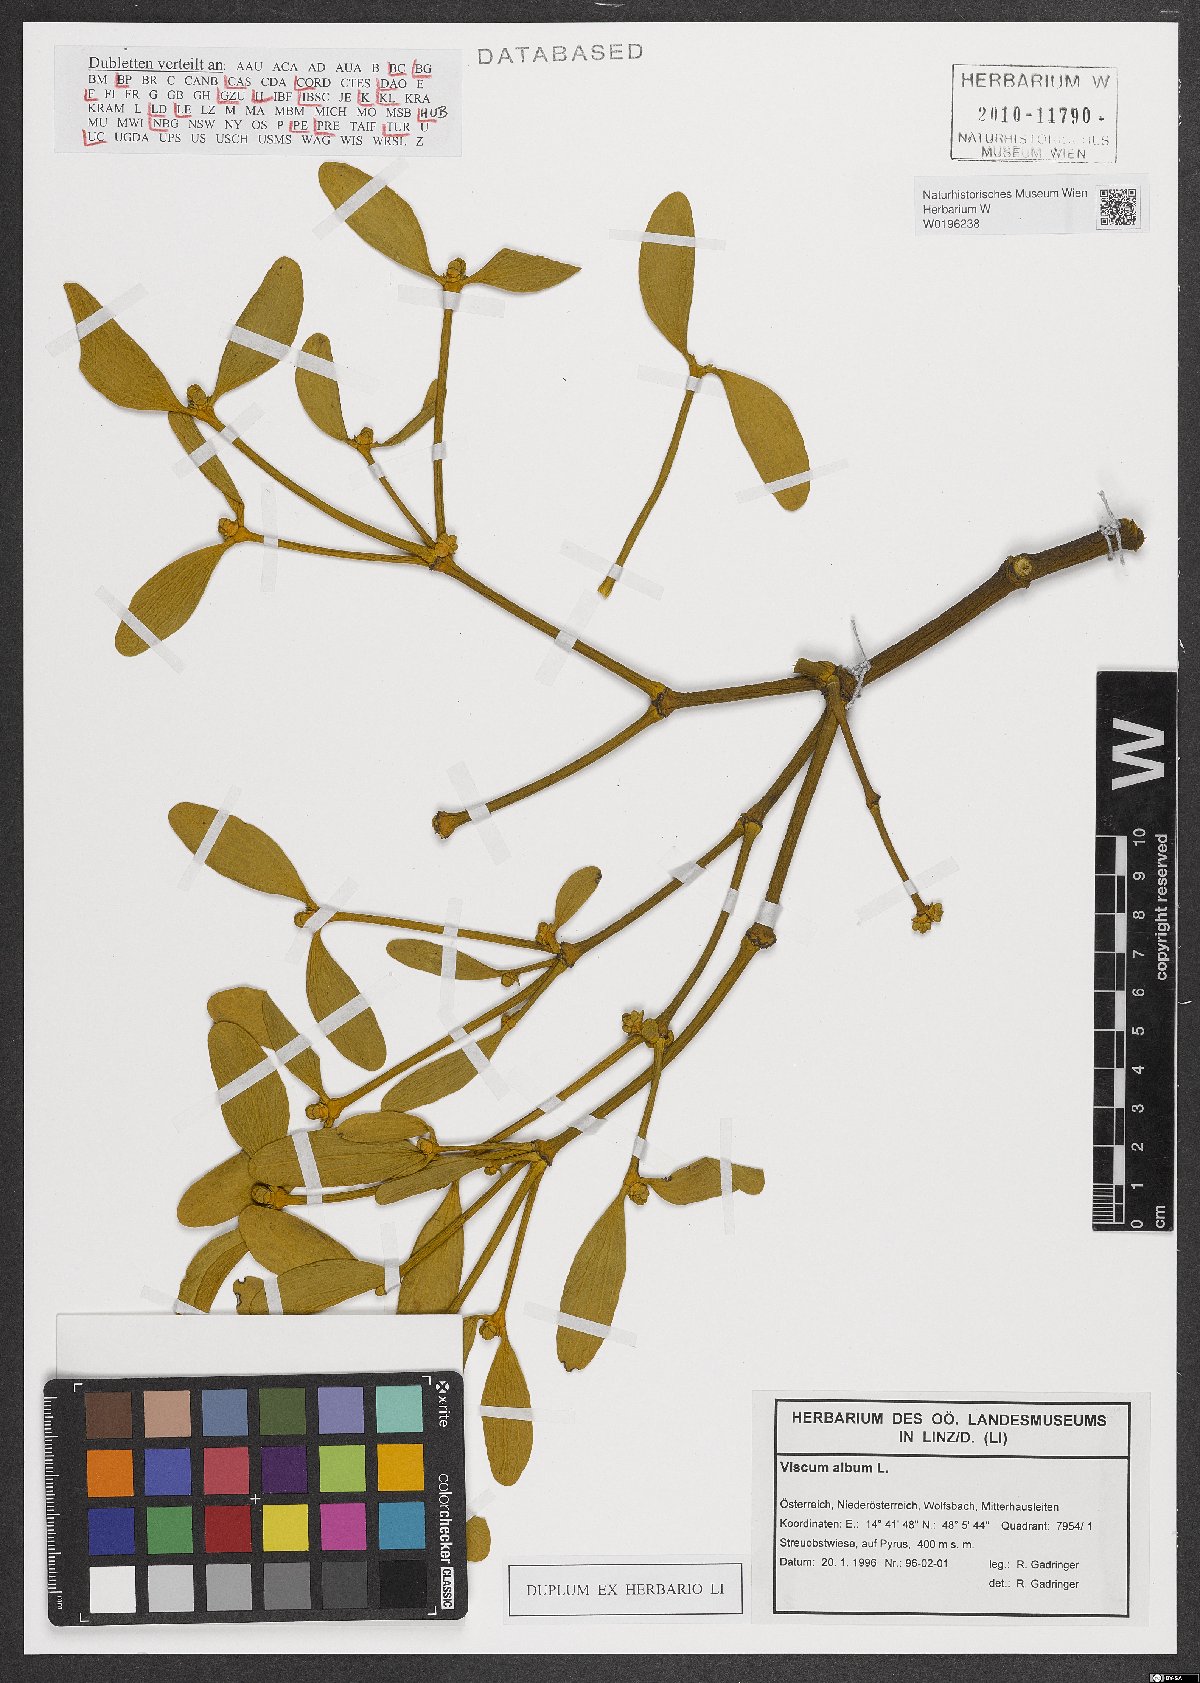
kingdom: Plantae
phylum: Tracheophyta
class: Magnoliopsida
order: Santalales
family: Viscaceae
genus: Viscum
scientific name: Viscum album
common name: Mistletoe
